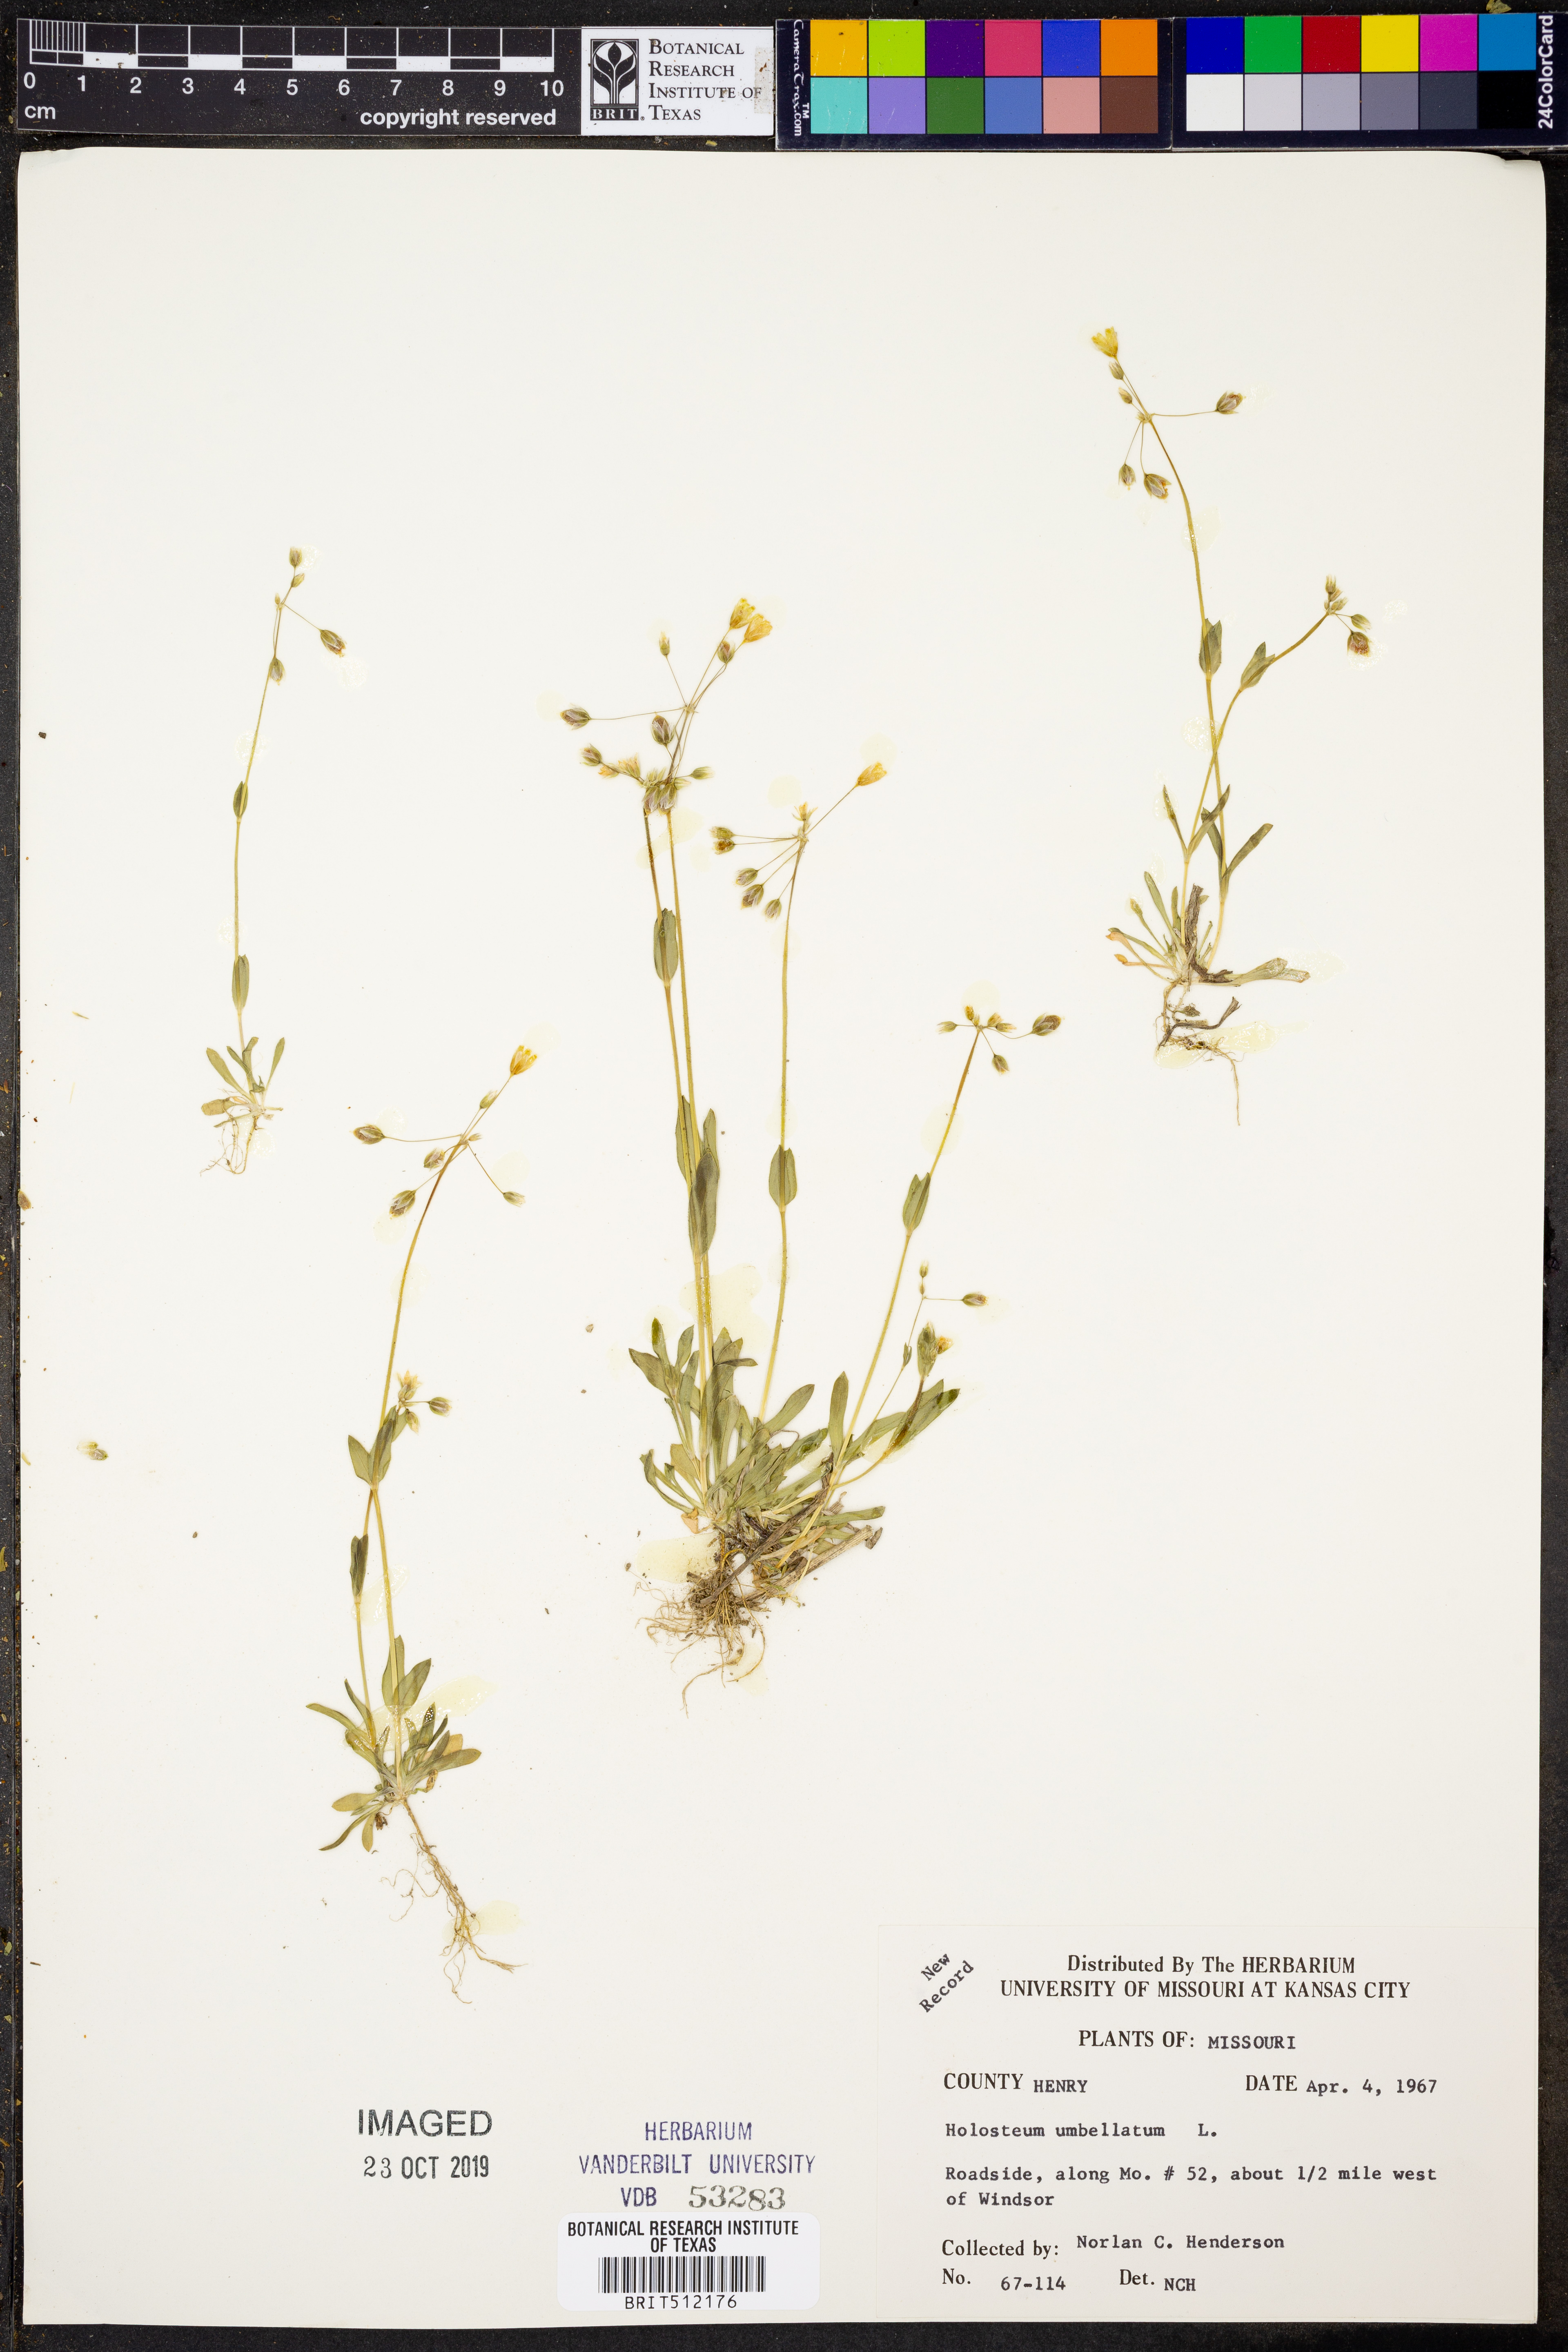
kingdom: Plantae
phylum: Tracheophyta
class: Magnoliopsida
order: Caryophyllales
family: Caryophyllaceae
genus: Holosteum
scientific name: Holosteum umbellatum
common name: Jagged chickweed
